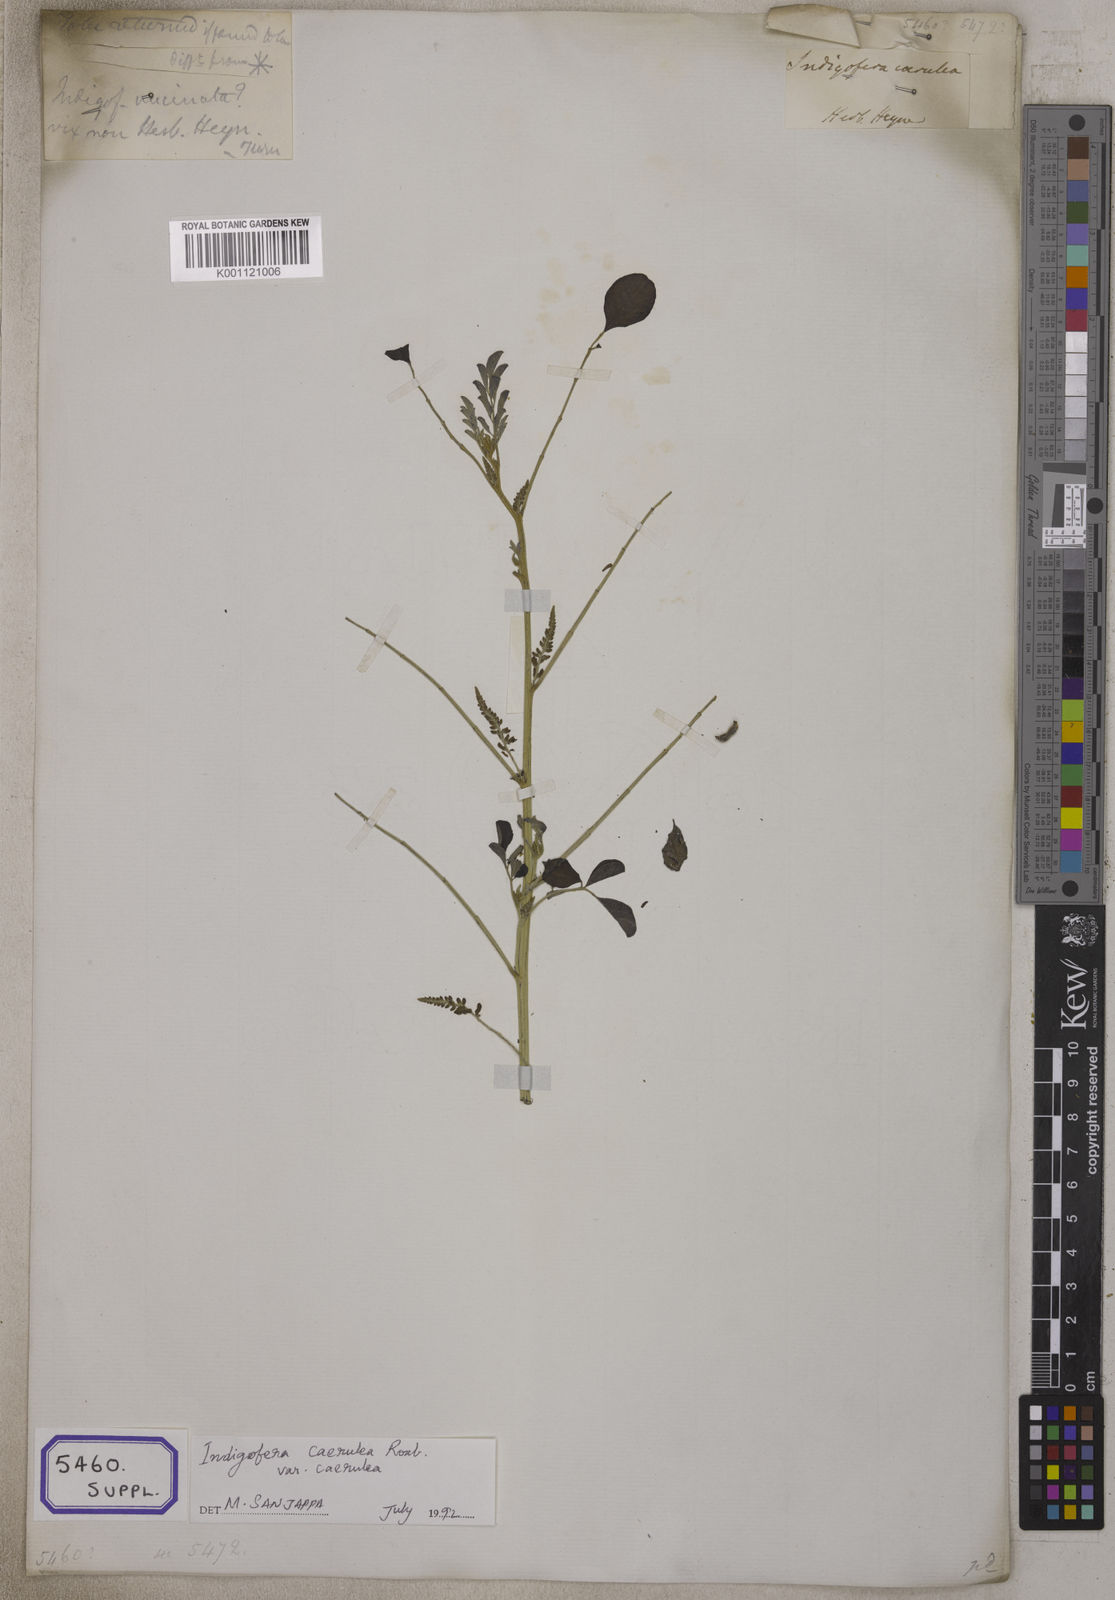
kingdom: Plantae
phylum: Tracheophyta
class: Magnoliopsida
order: Fabales
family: Fabaceae
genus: Indigofera
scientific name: Indigofera
